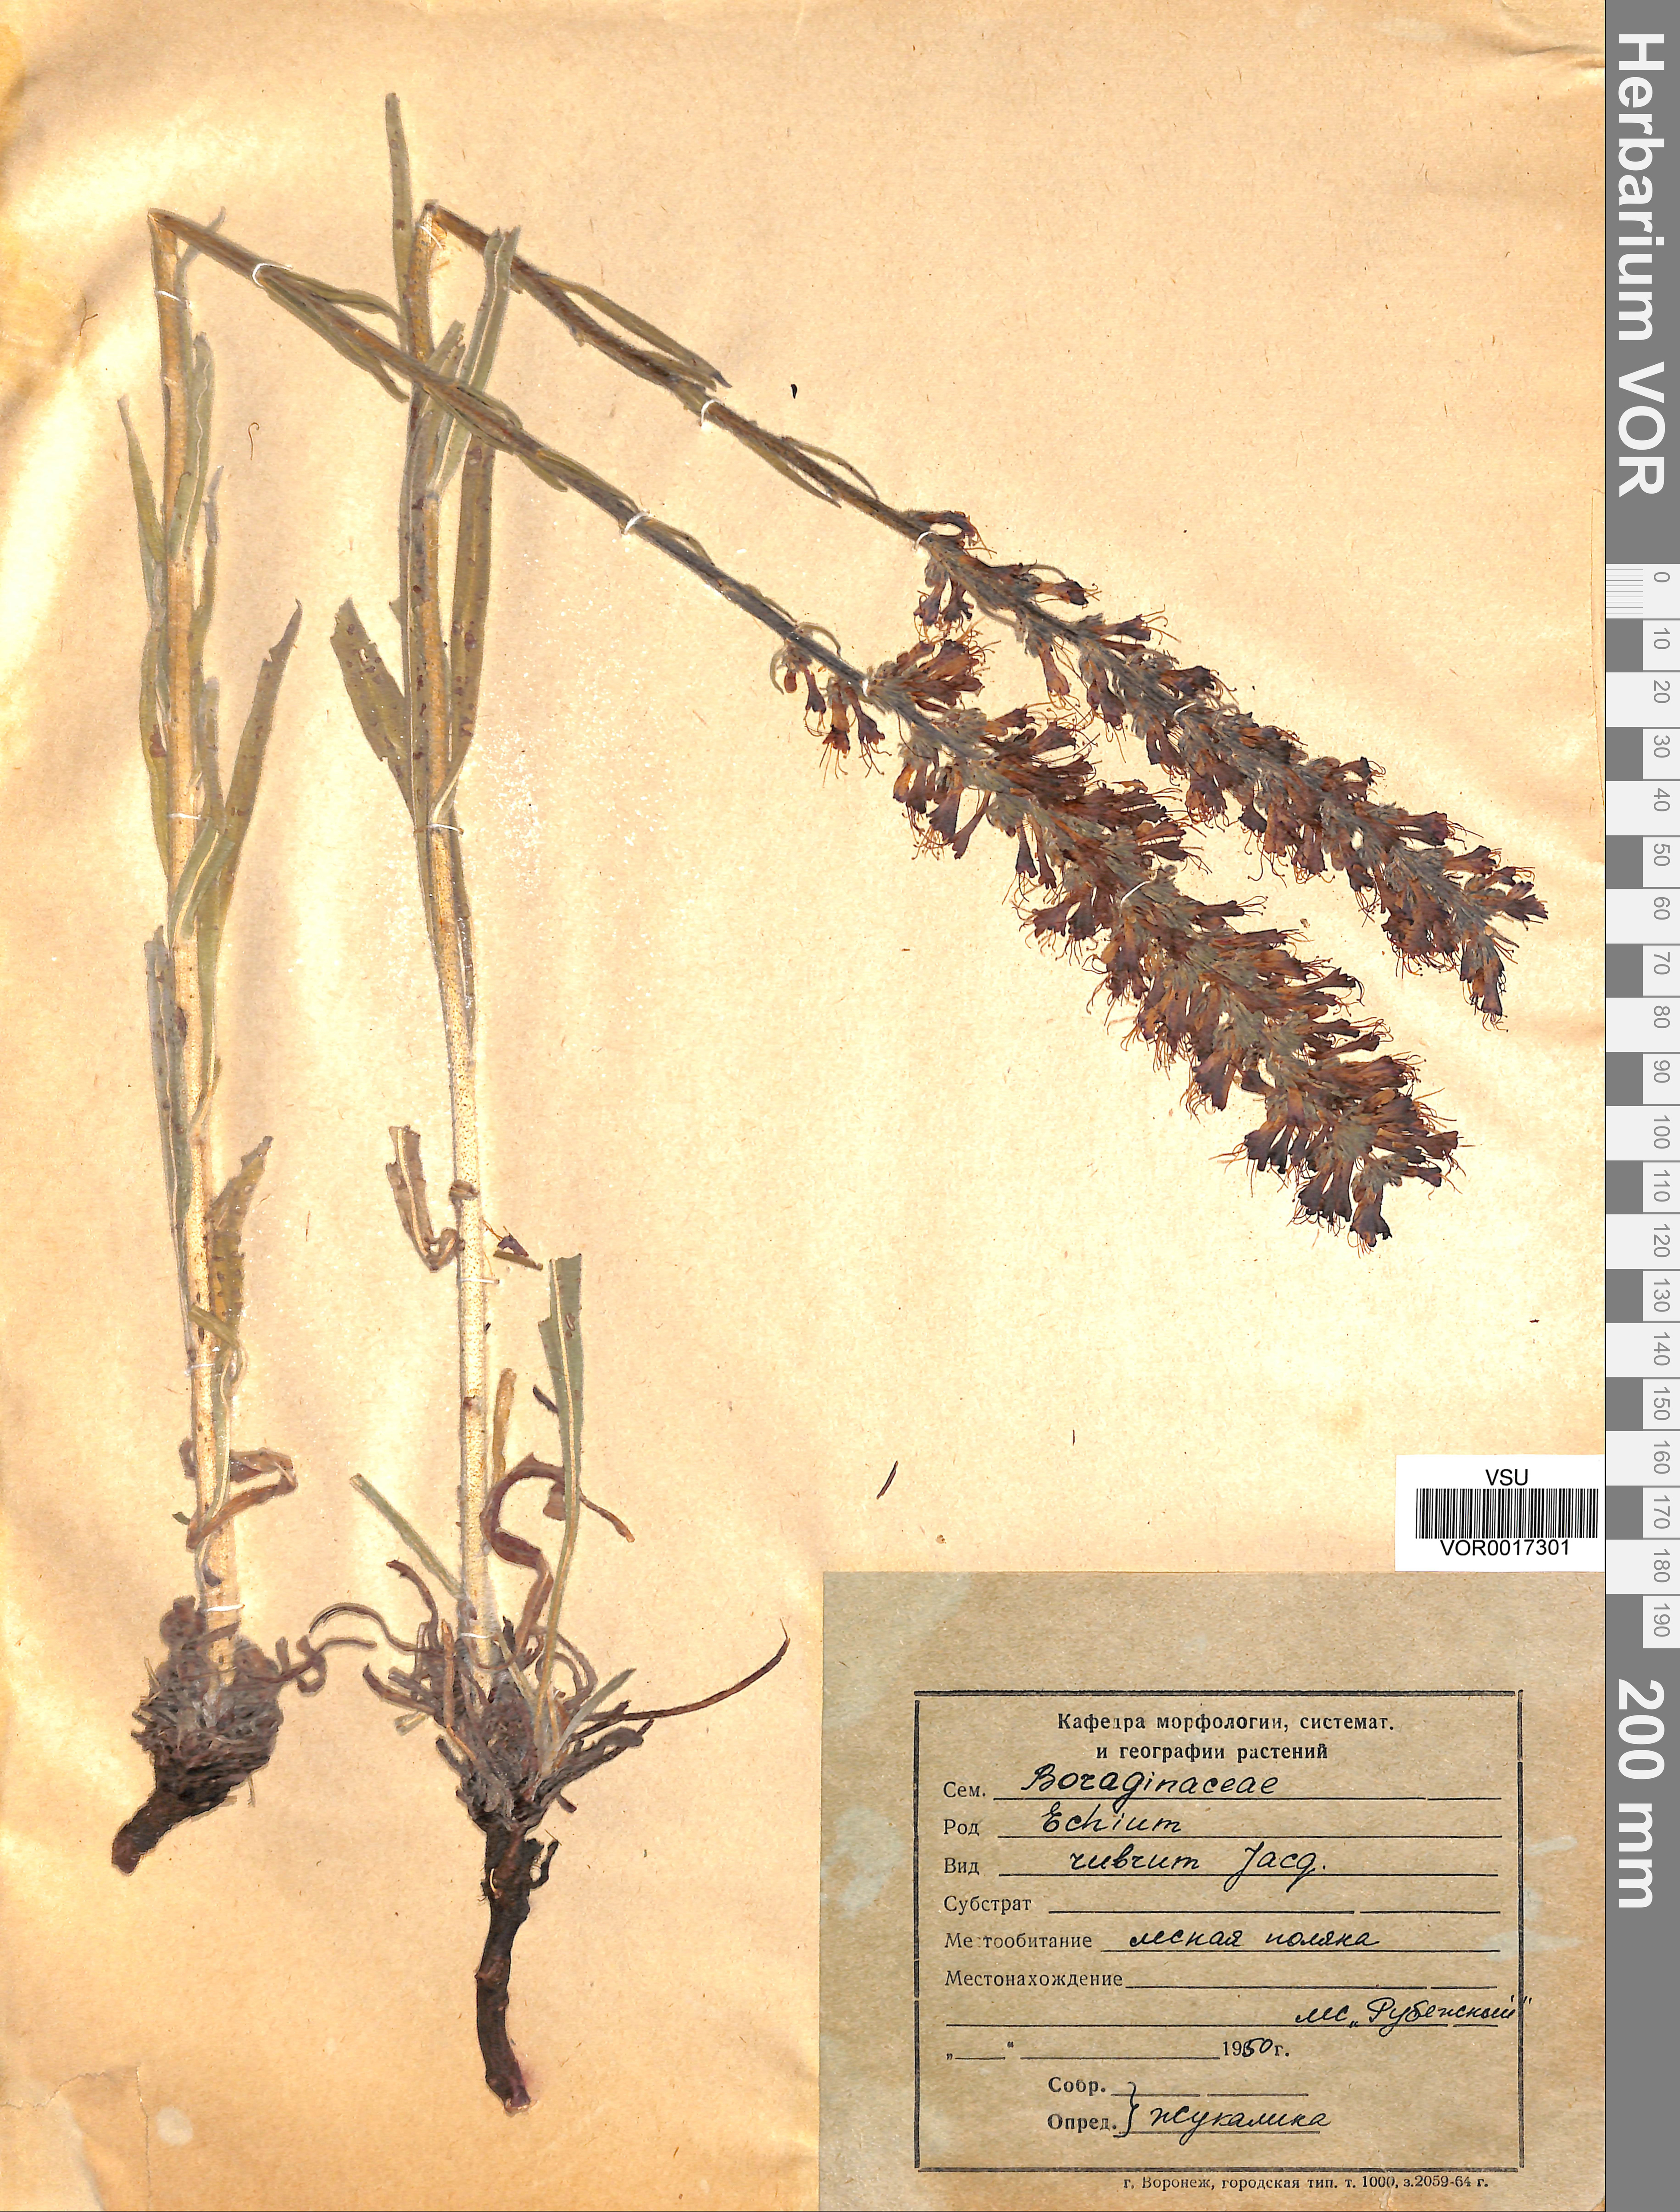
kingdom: Plantae
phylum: Tracheophyta
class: Magnoliopsida
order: Boraginales
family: Boraginaceae
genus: Pontechium
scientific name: Pontechium maculatum
